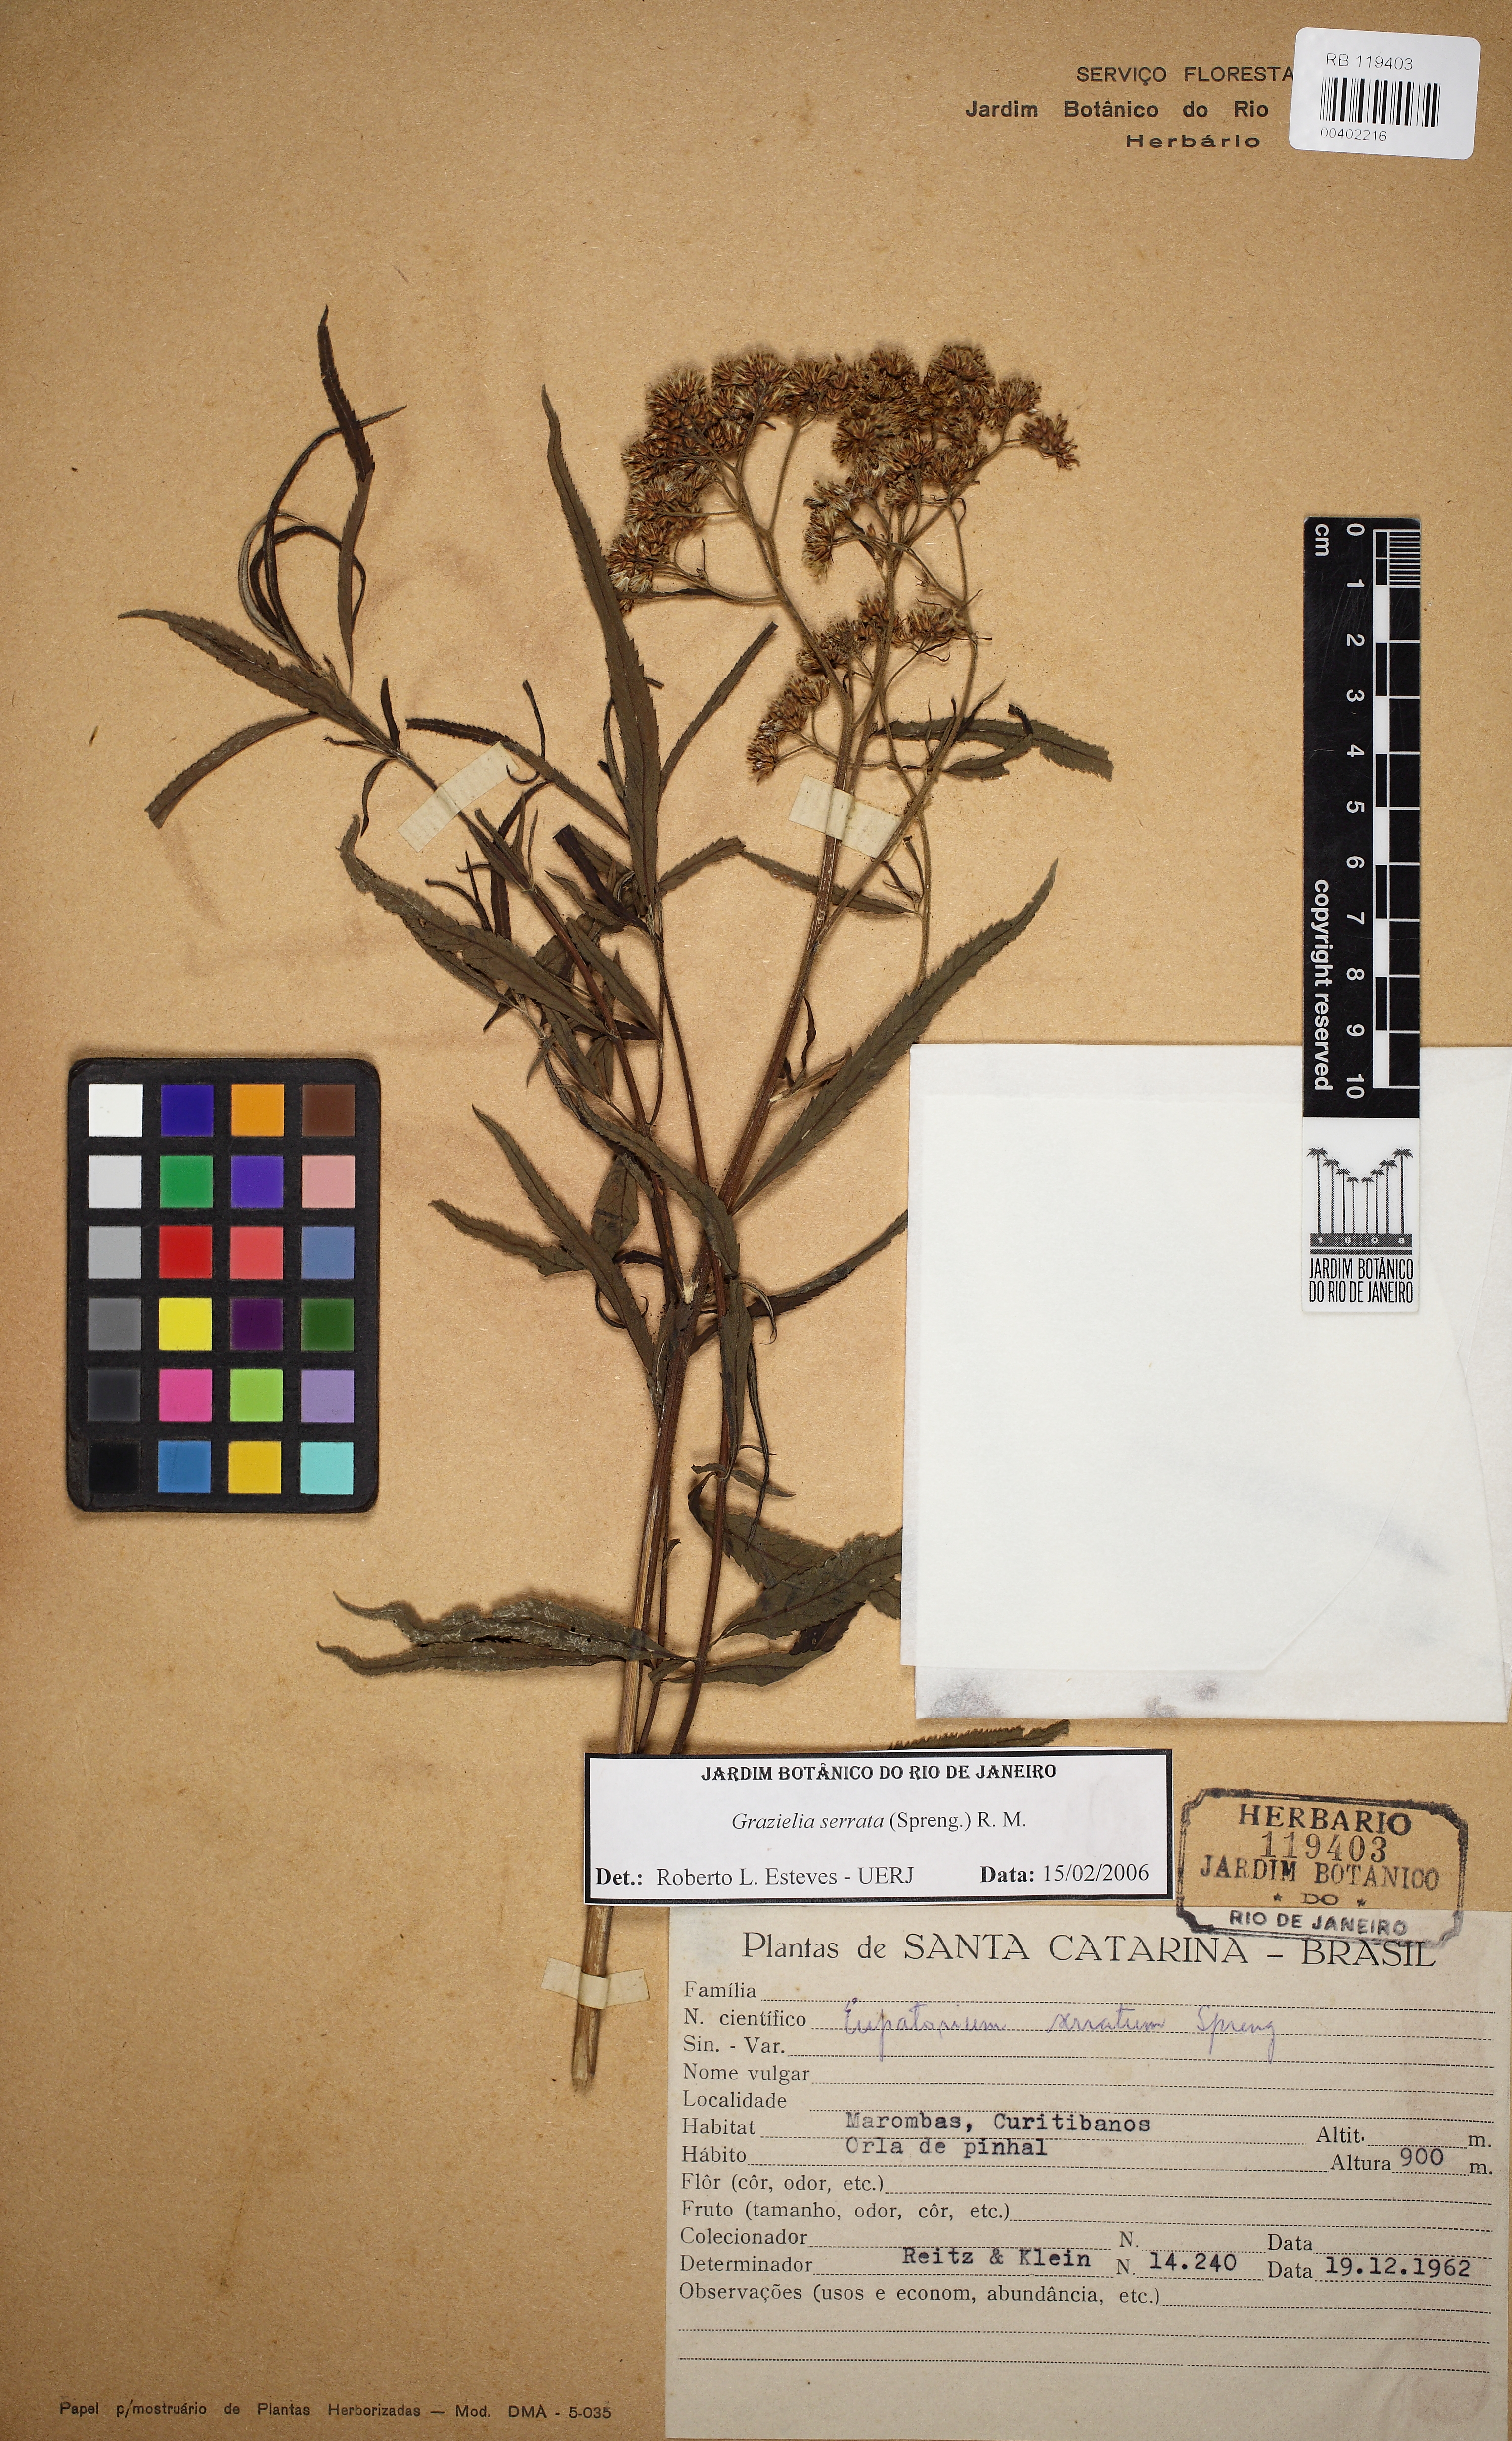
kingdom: Plantae
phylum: Tracheophyta
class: Magnoliopsida
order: Asterales
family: Asteraceae
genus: Grazielia
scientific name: Grazielia serrata
